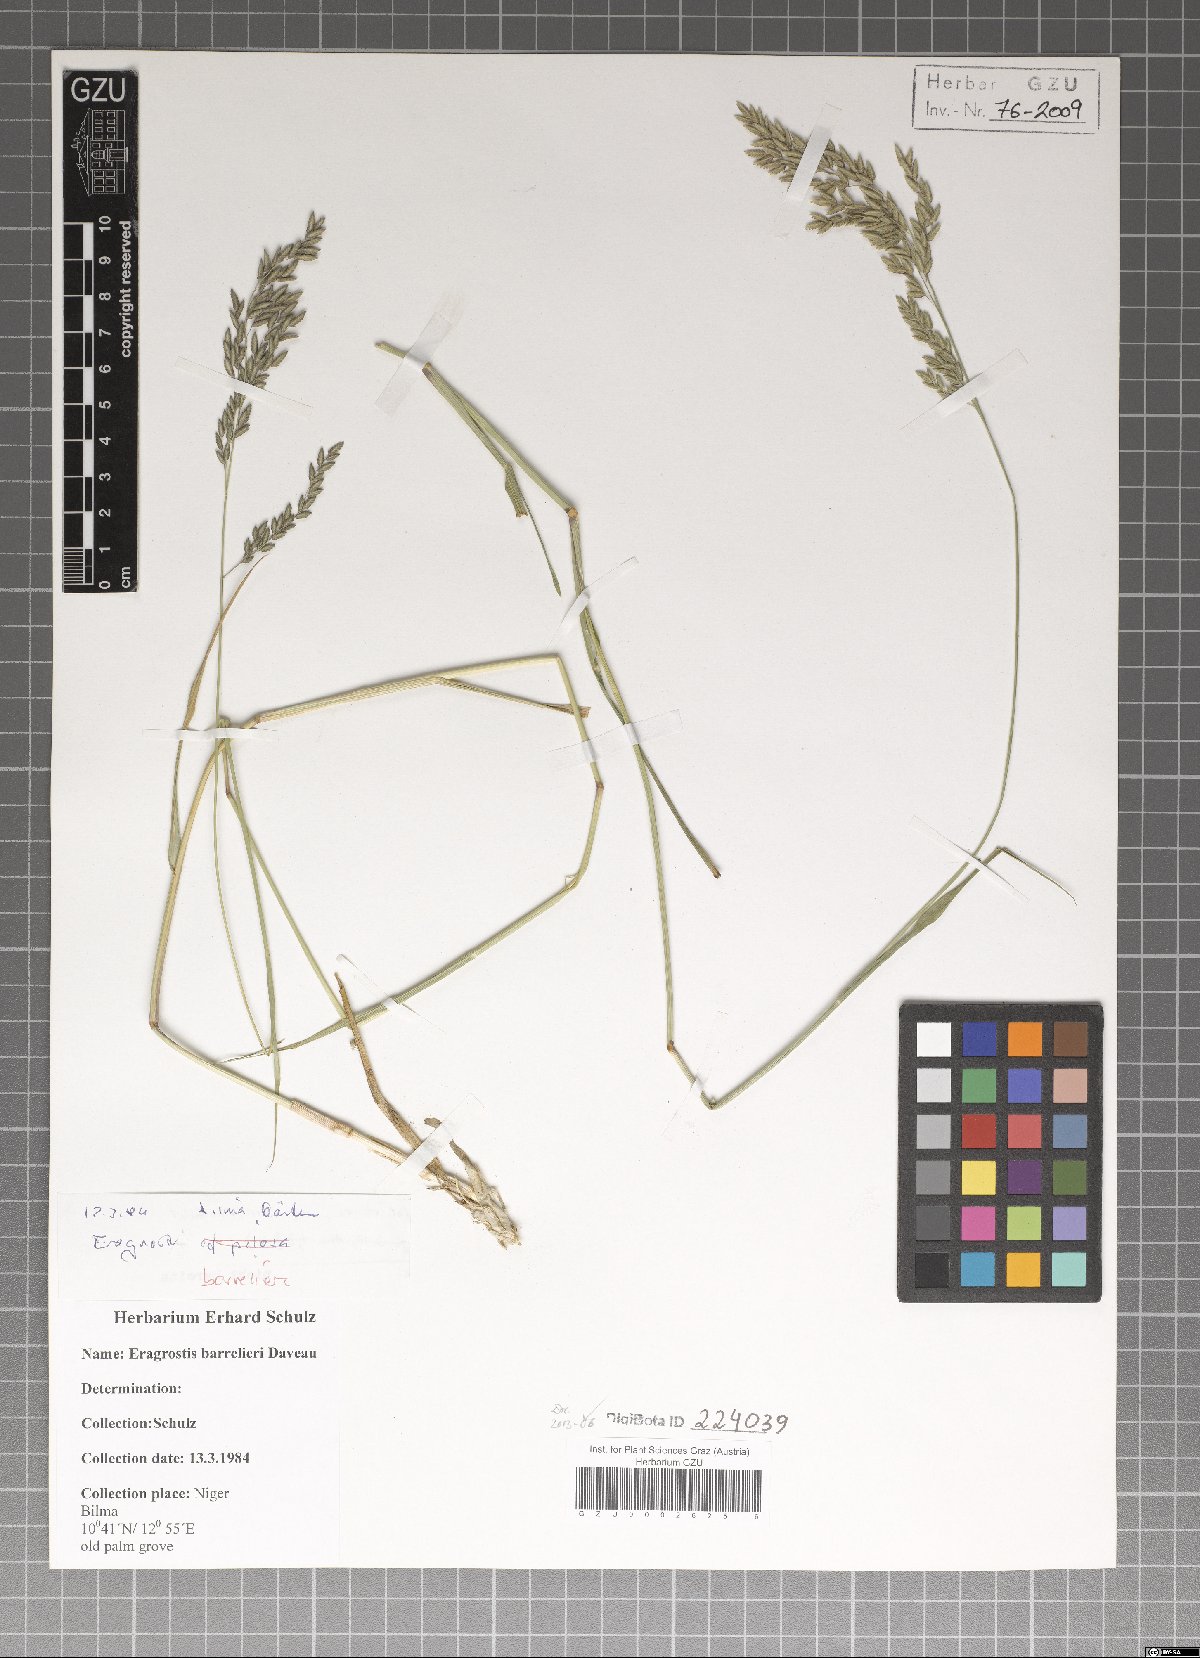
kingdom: Plantae
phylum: Tracheophyta
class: Liliopsida
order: Poales
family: Poaceae
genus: Eragrostis
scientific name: Eragrostis barrelieri
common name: Mediterranean lovegrass
